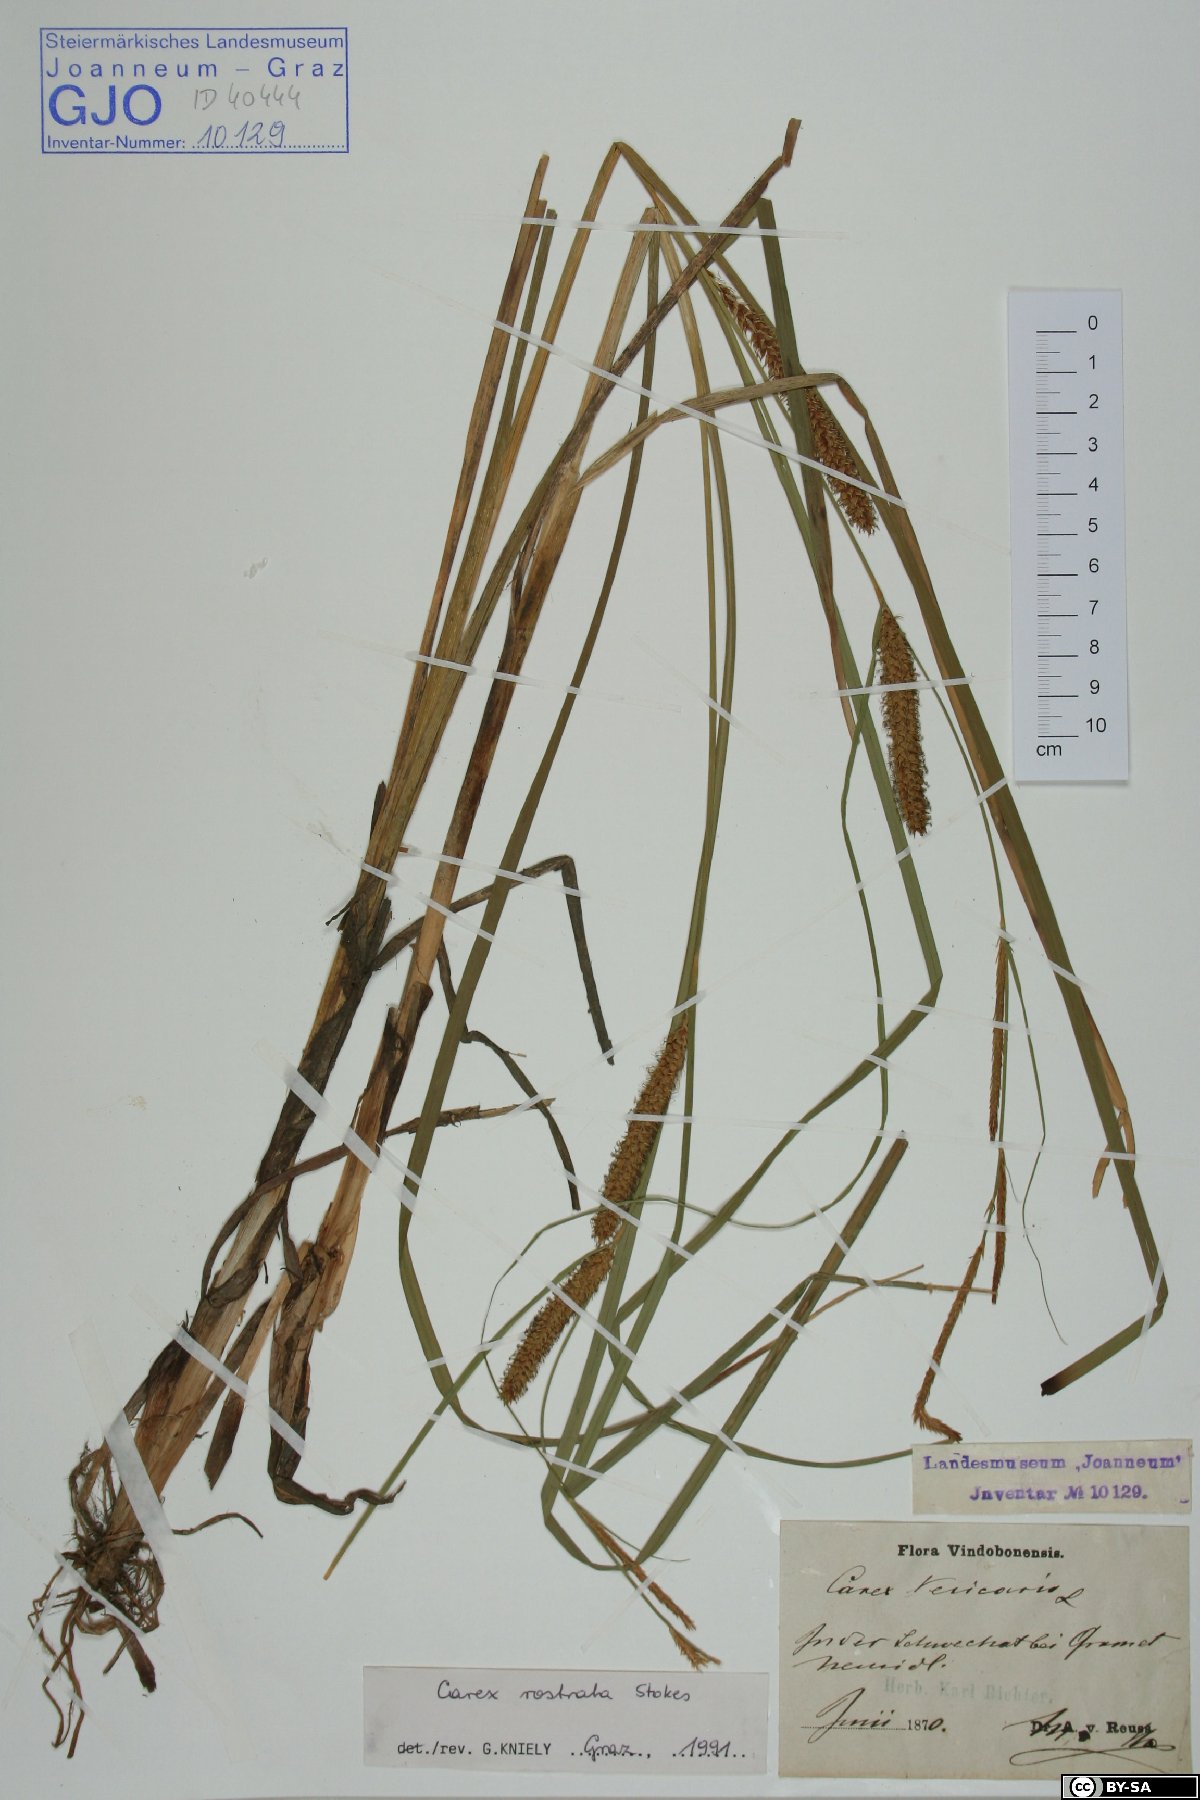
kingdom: Plantae
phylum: Tracheophyta
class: Liliopsida
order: Poales
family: Cyperaceae
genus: Carex
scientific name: Carex rostrata
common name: Bottle sedge
